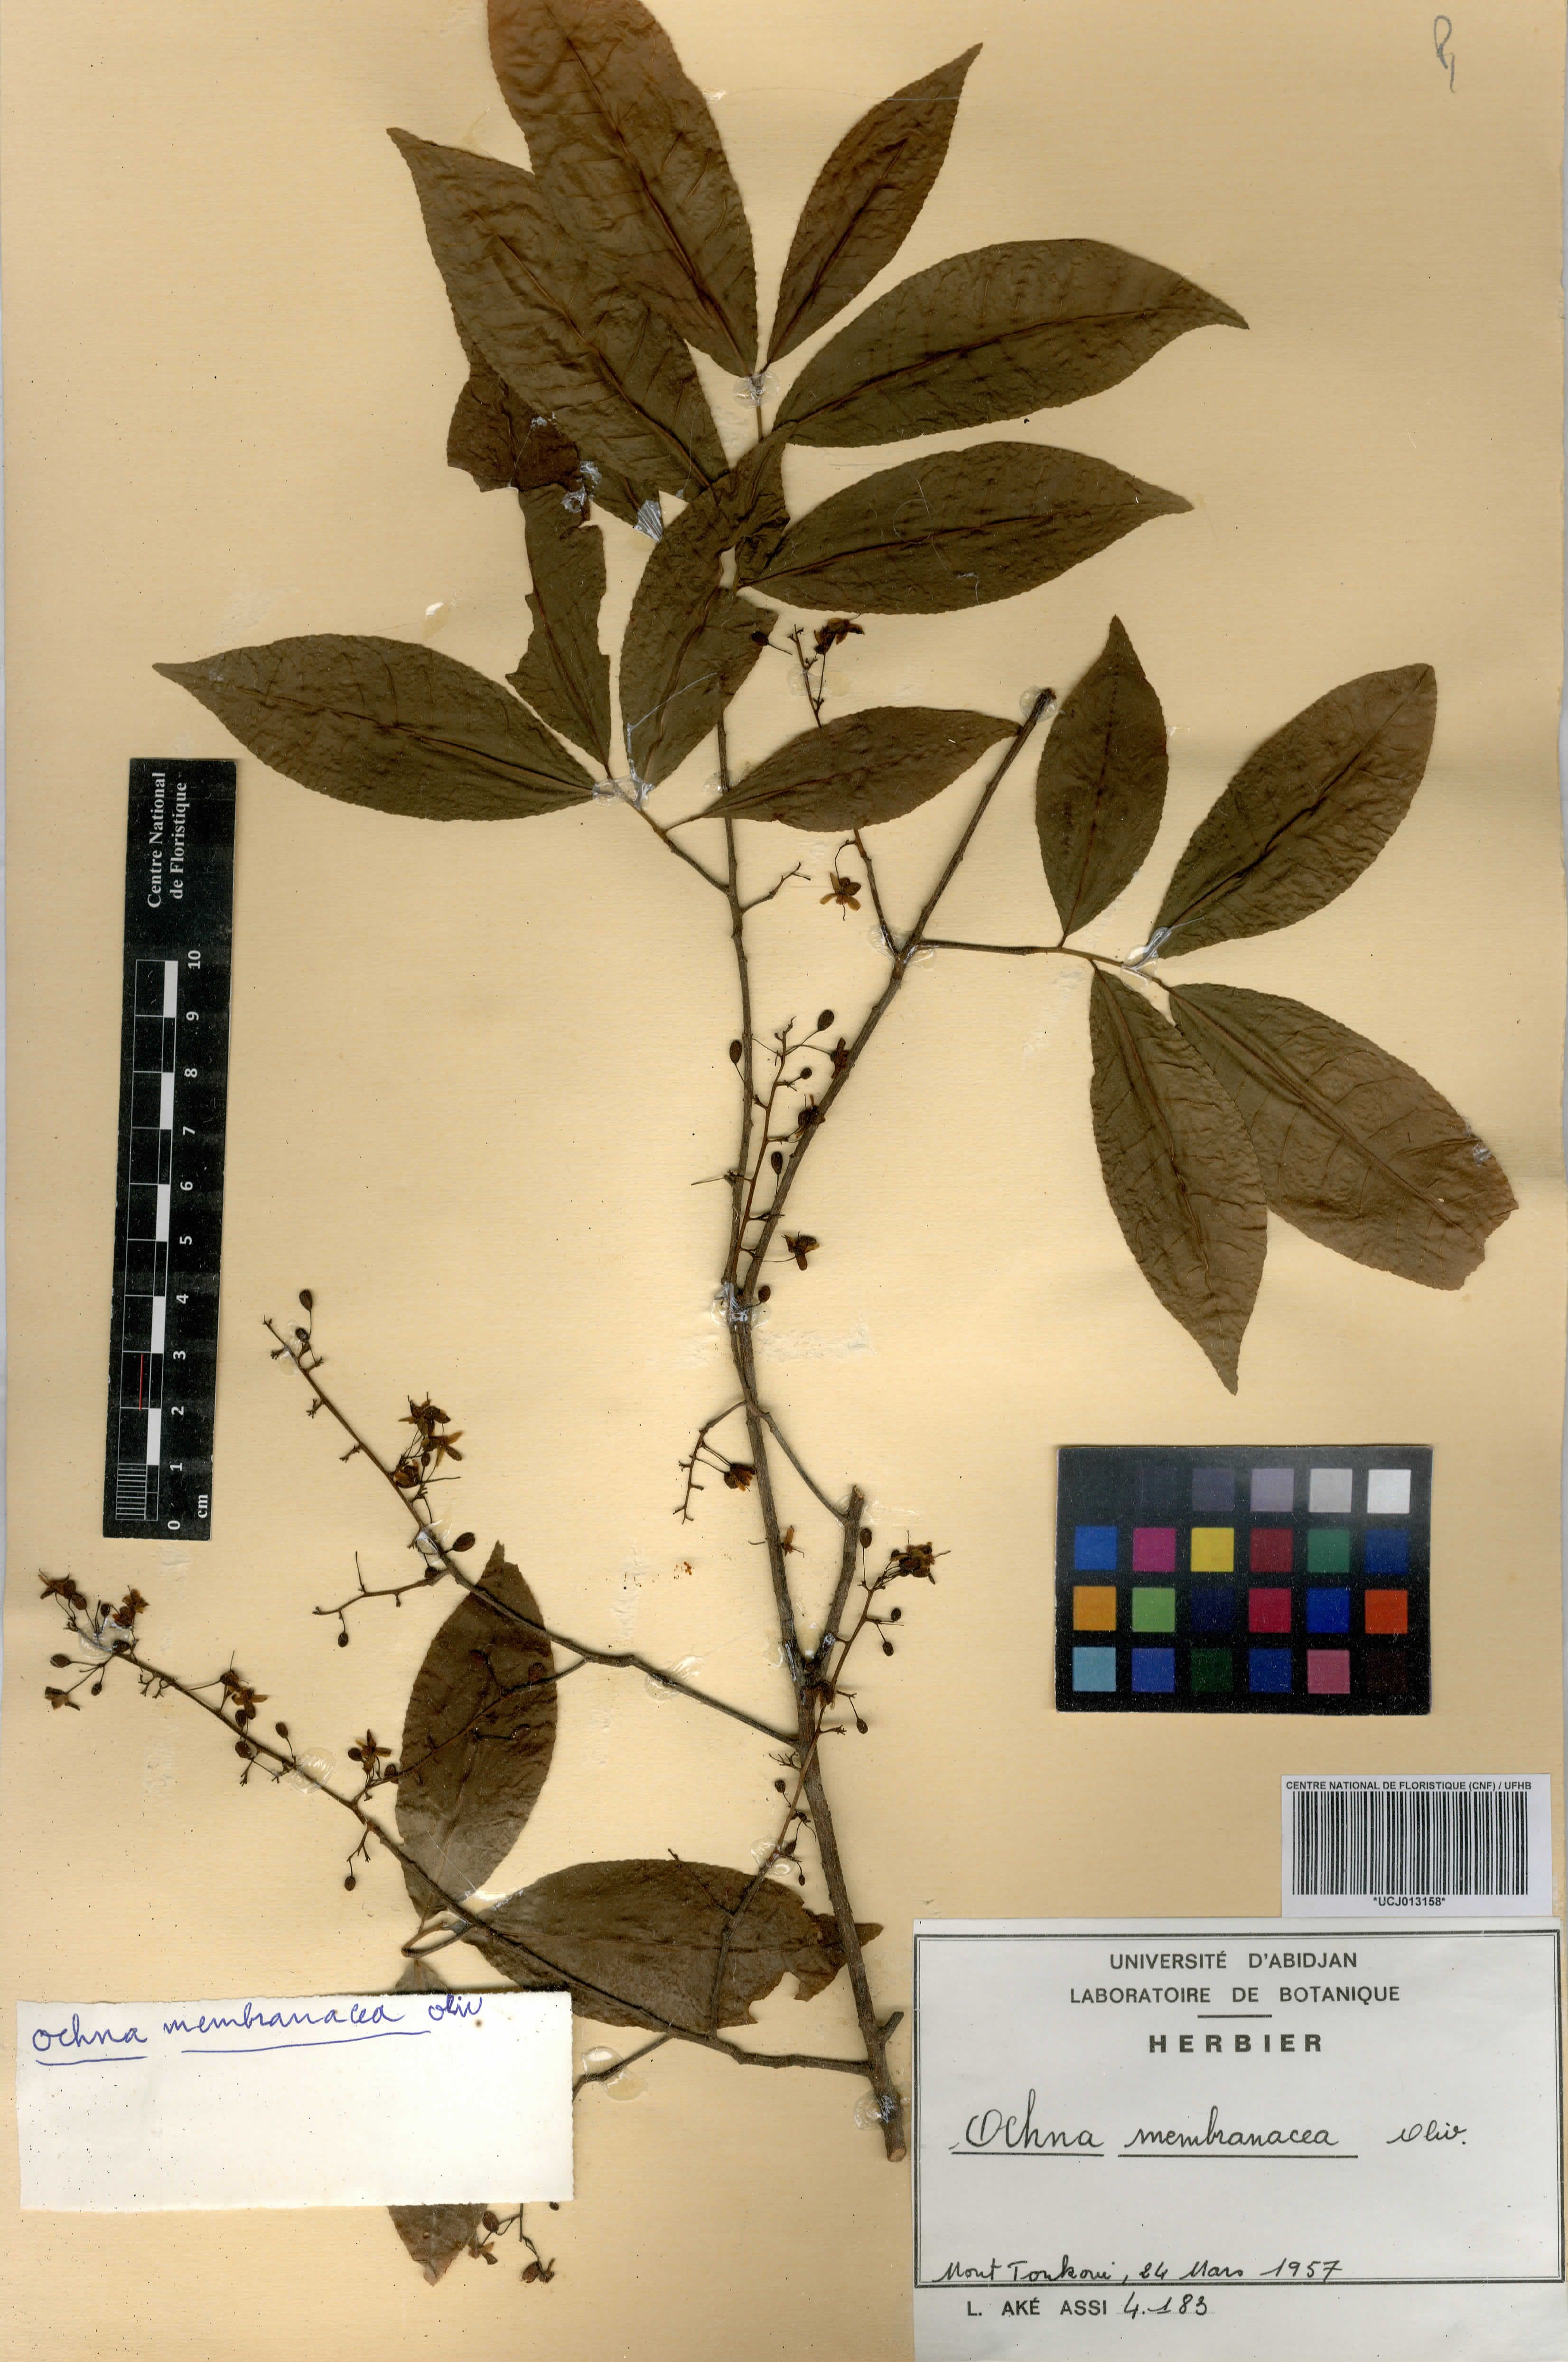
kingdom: Plantae
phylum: Tracheophyta
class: Magnoliopsida
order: Malpighiales
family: Ochnaceae
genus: Ochna
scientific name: Ochna membranacea
